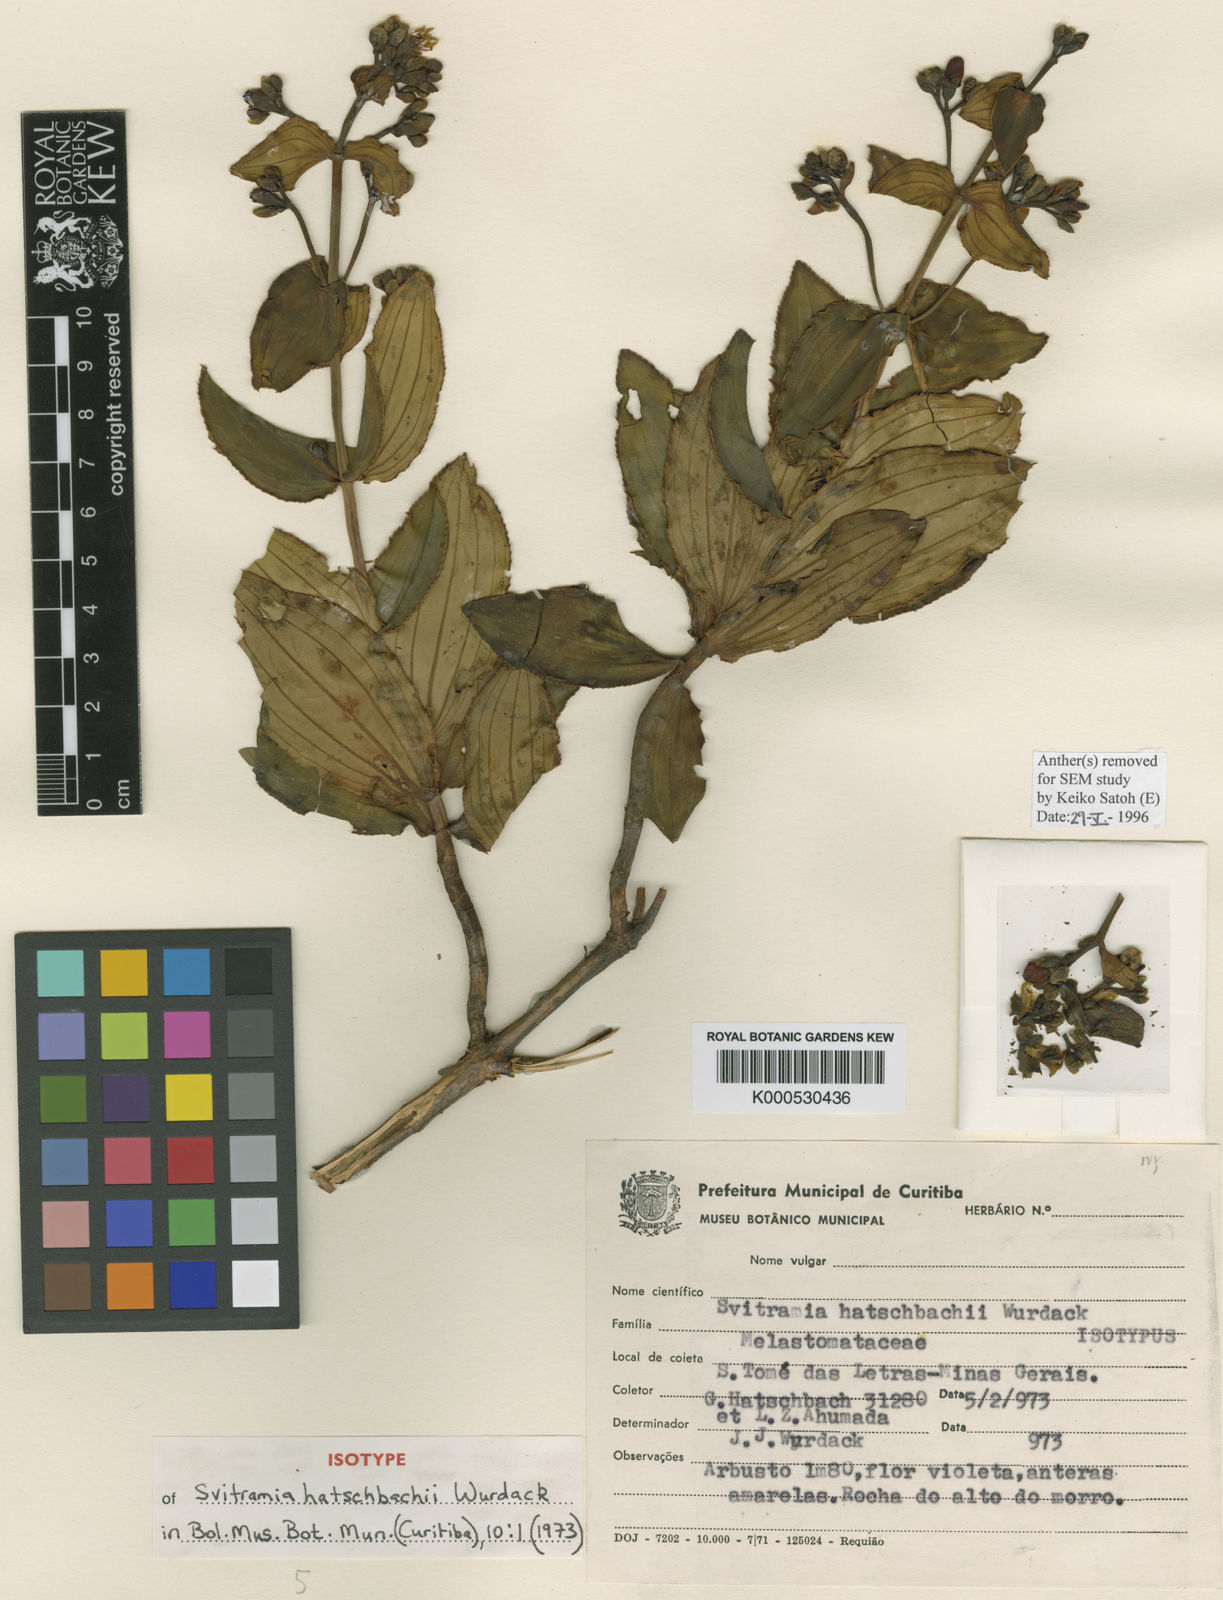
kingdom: Plantae
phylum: Tracheophyta
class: Magnoliopsida
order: Myrtales
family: Melastomataceae
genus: Pleroma
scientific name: Pleroma gertii
